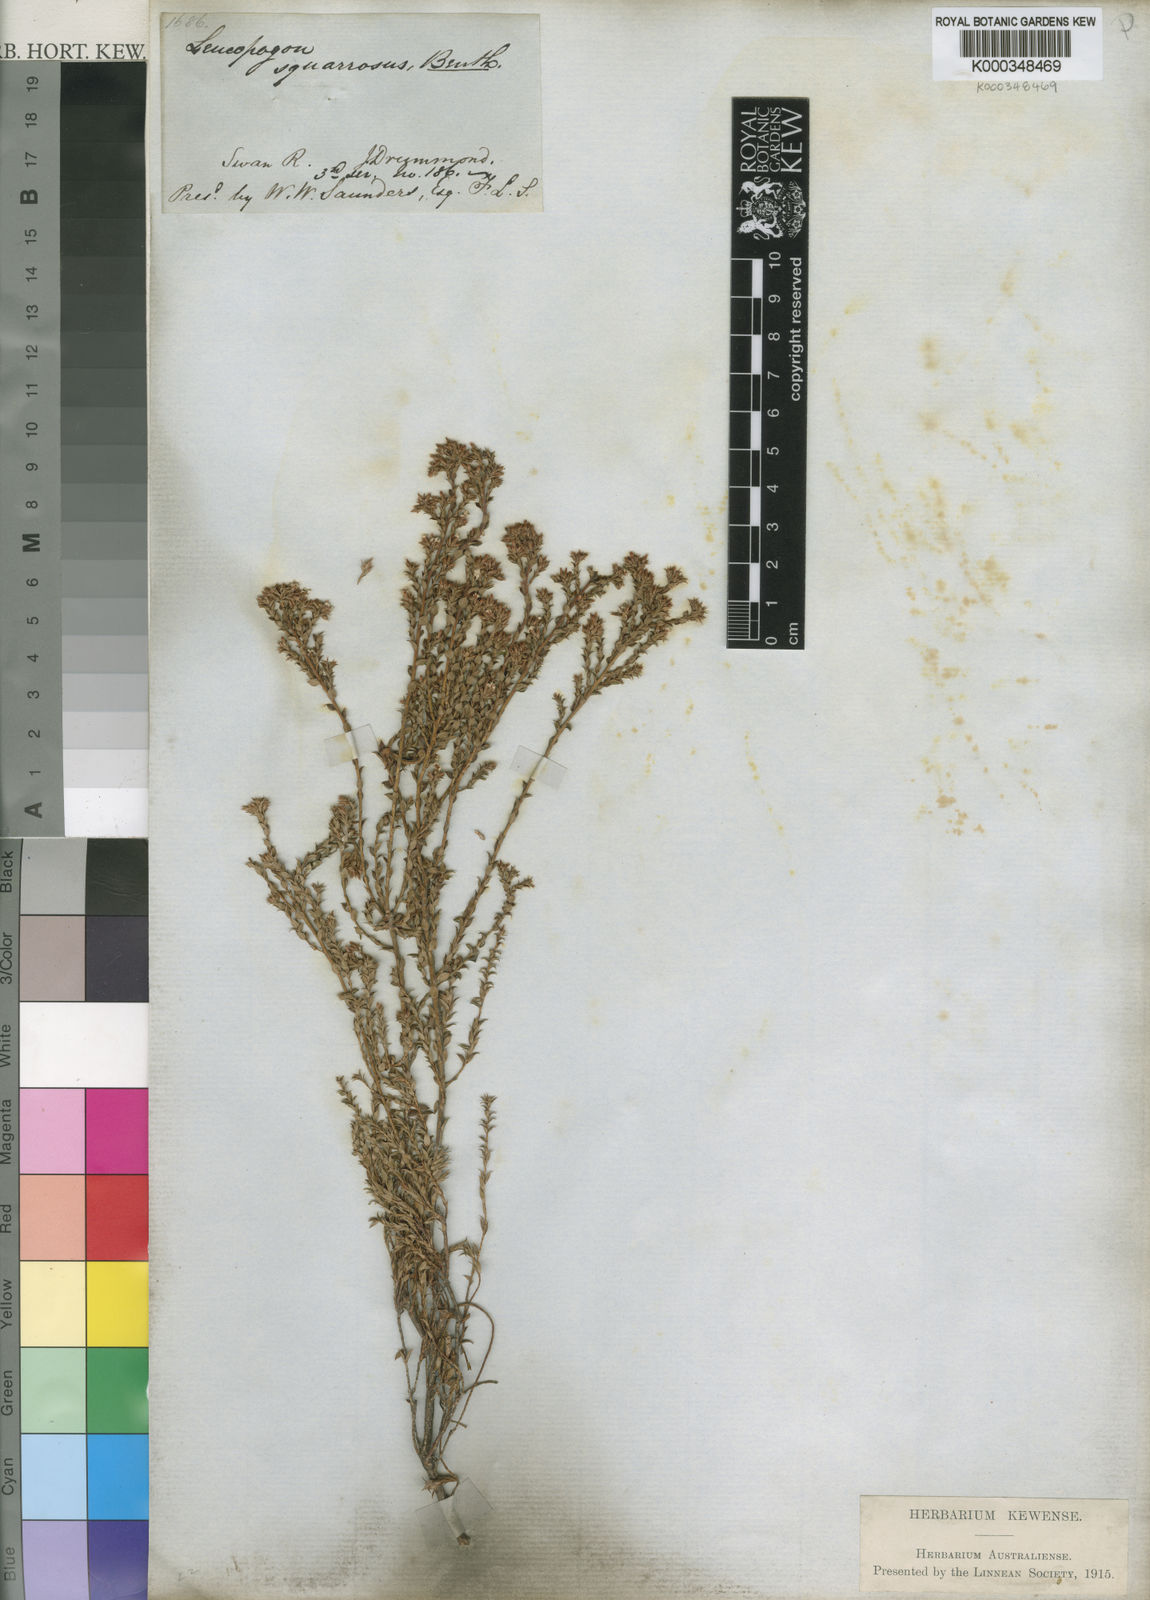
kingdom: Plantae
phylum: Tracheophyta
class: Magnoliopsida
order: Ericales
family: Ericaceae
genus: Leucopogon
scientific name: Leucopogon squarrosus
